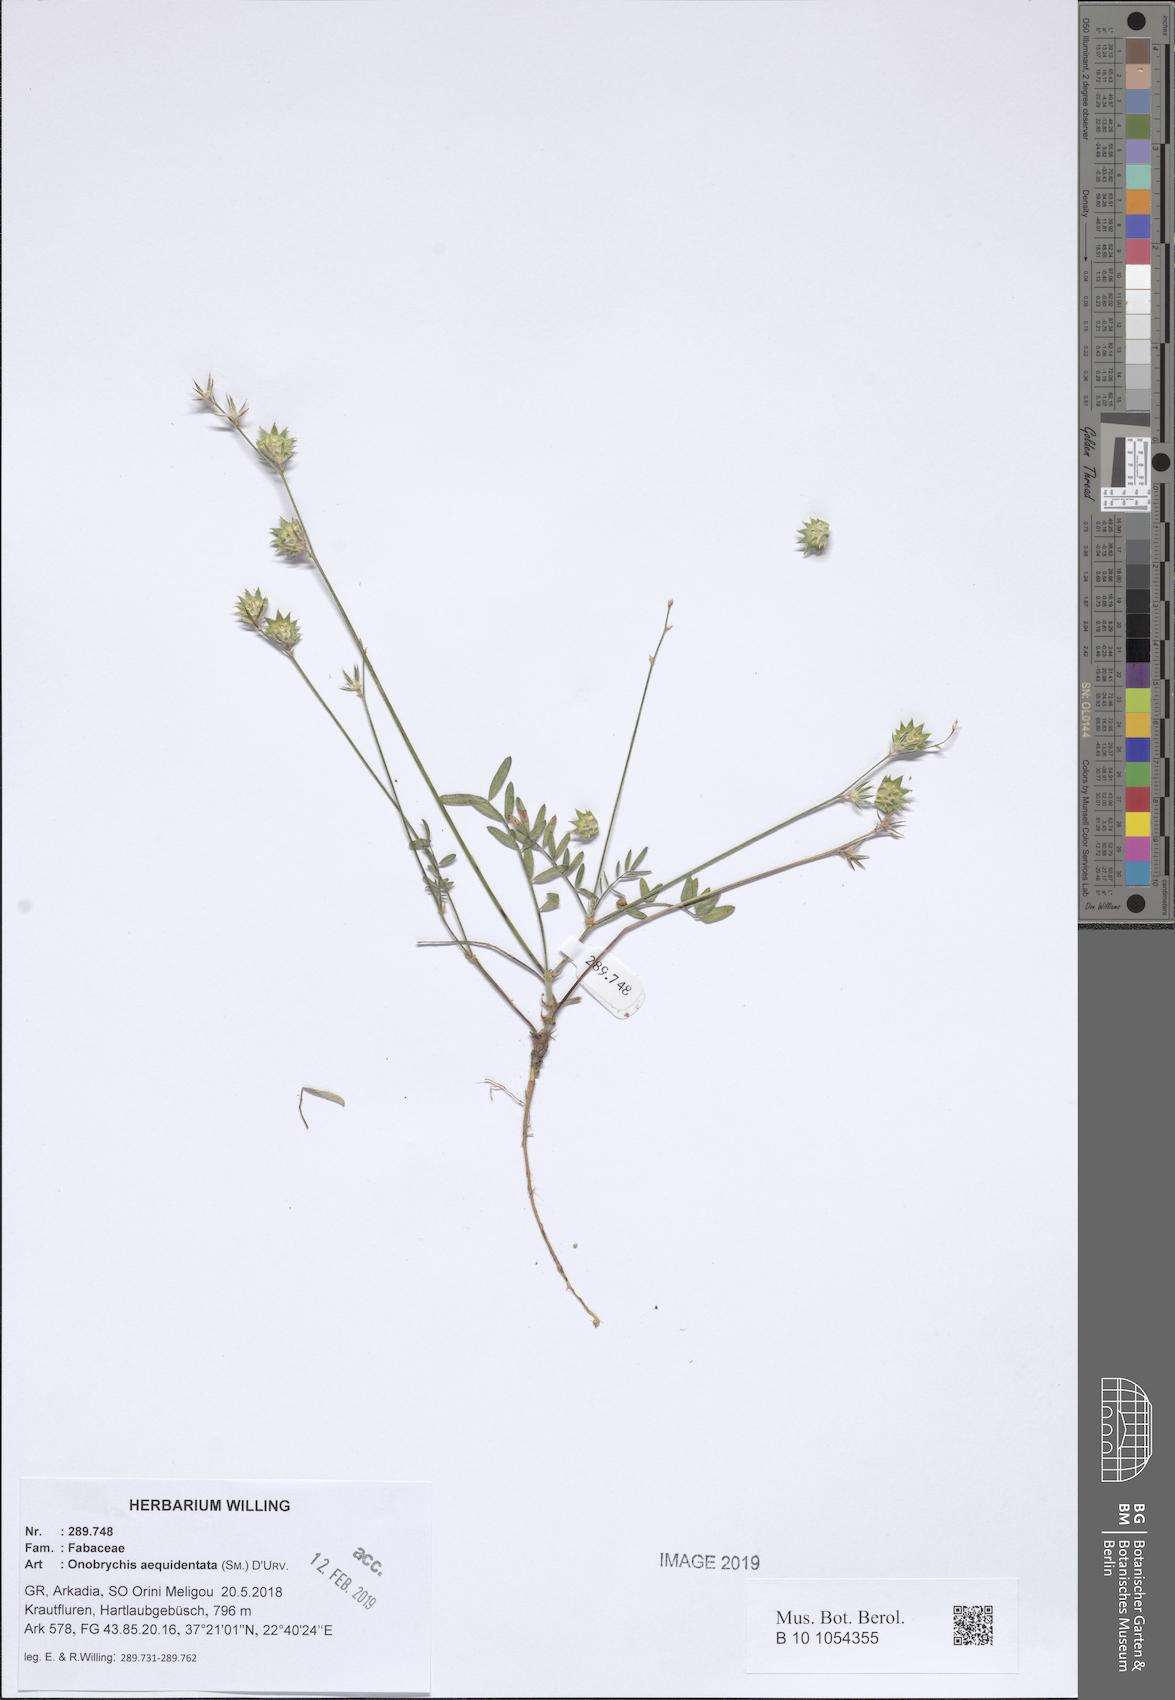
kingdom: Plantae
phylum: Tracheophyta
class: Magnoliopsida
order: Fabales
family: Fabaceae
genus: Onobrychis
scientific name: Onobrychis aequidentata
